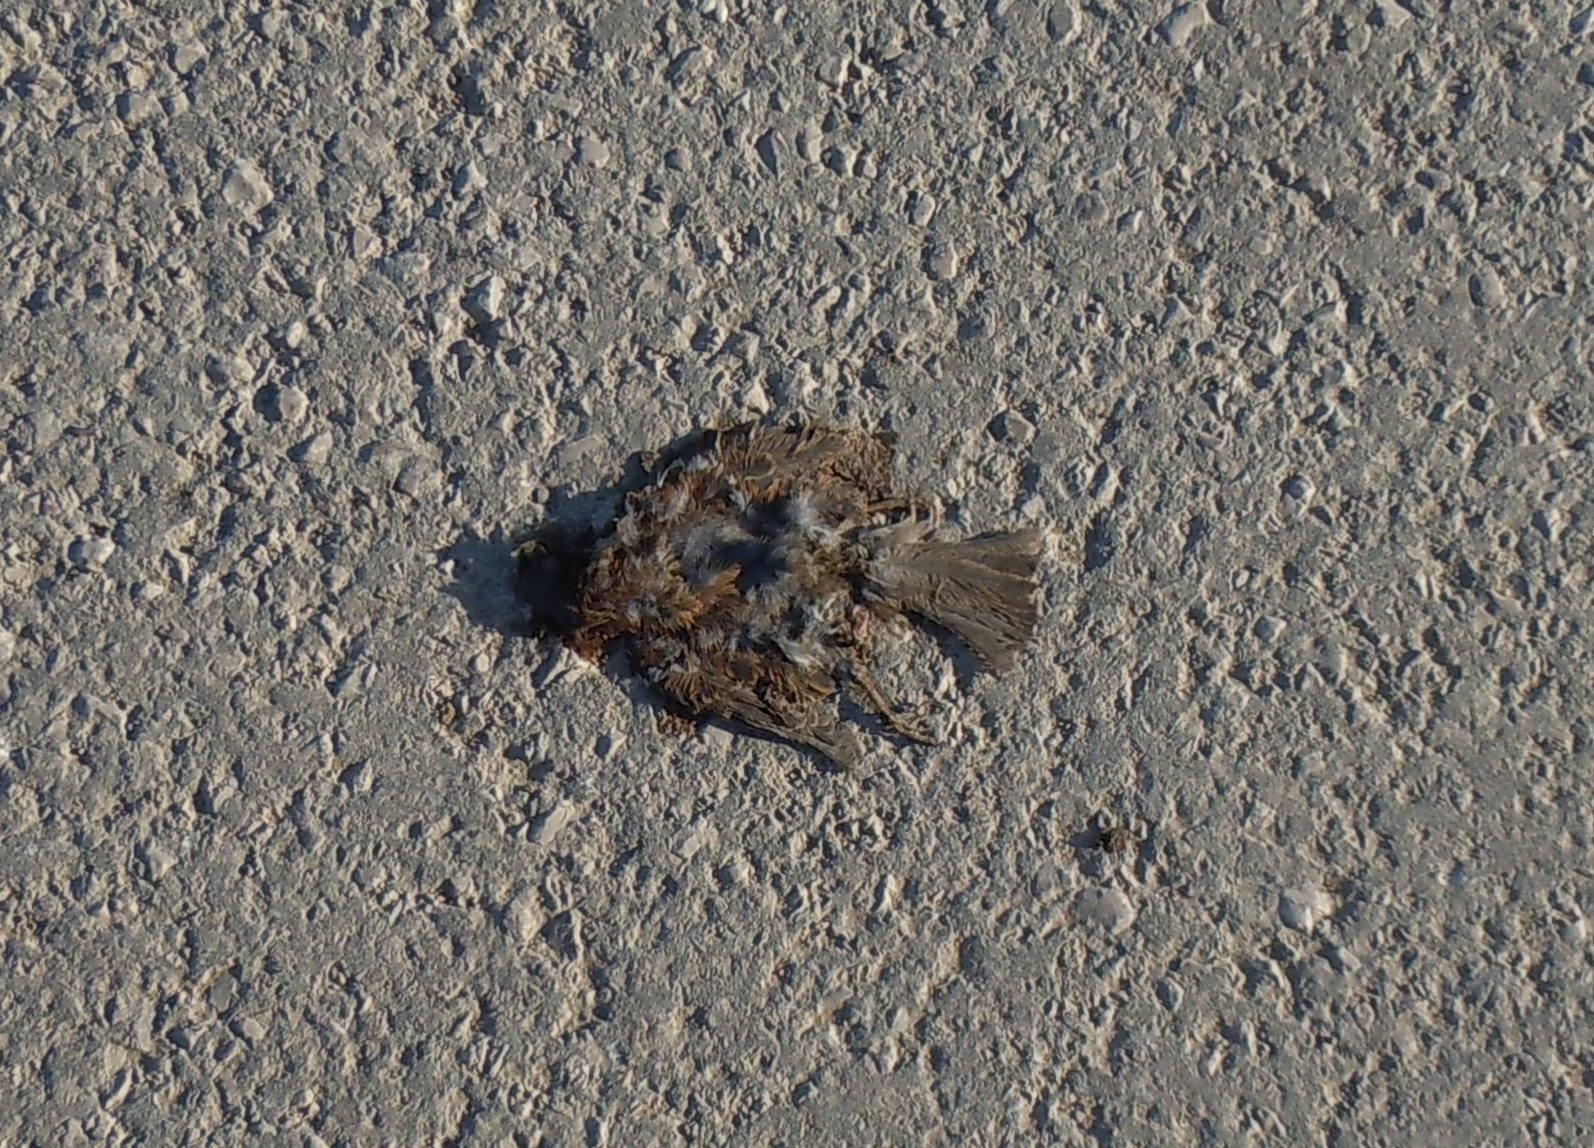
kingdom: Animalia
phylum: Chordata
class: Aves
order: Passeriformes
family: Passeridae
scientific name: Passeridae
